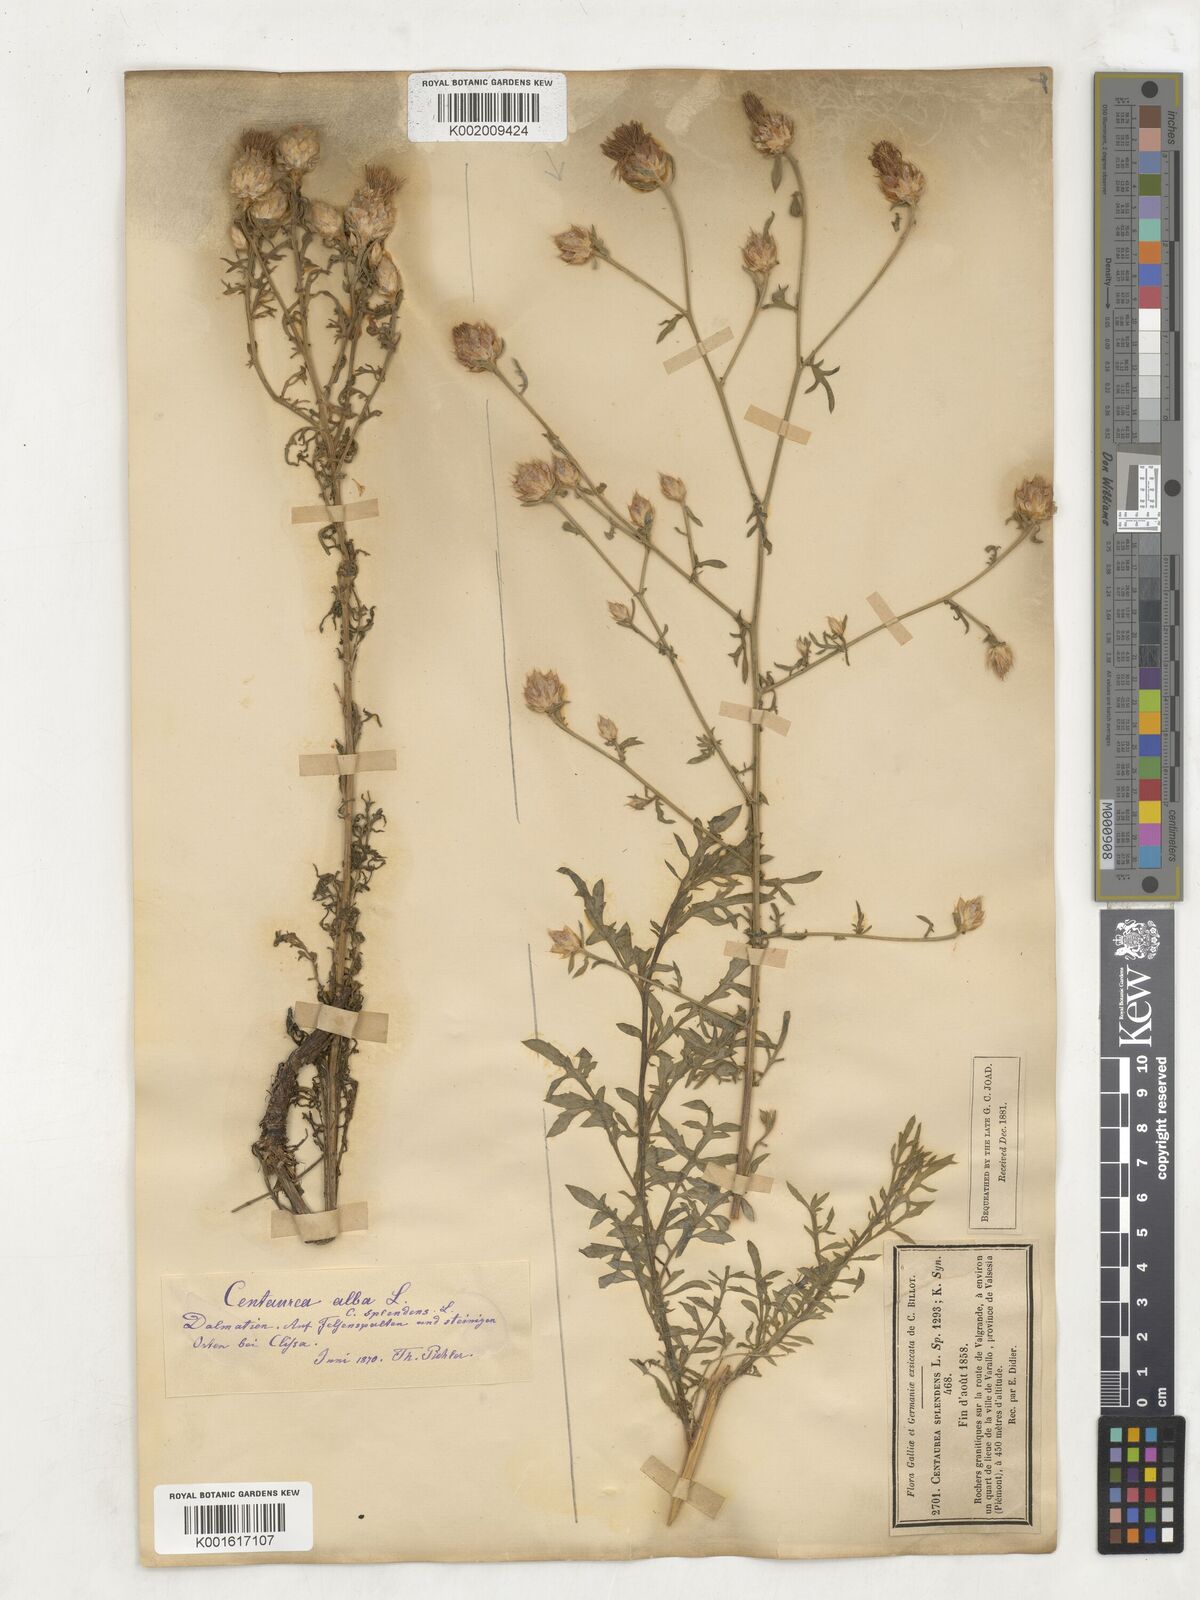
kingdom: Plantae
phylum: Tracheophyta
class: Magnoliopsida
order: Asterales
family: Asteraceae
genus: Centaurea
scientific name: Centaurea alba
